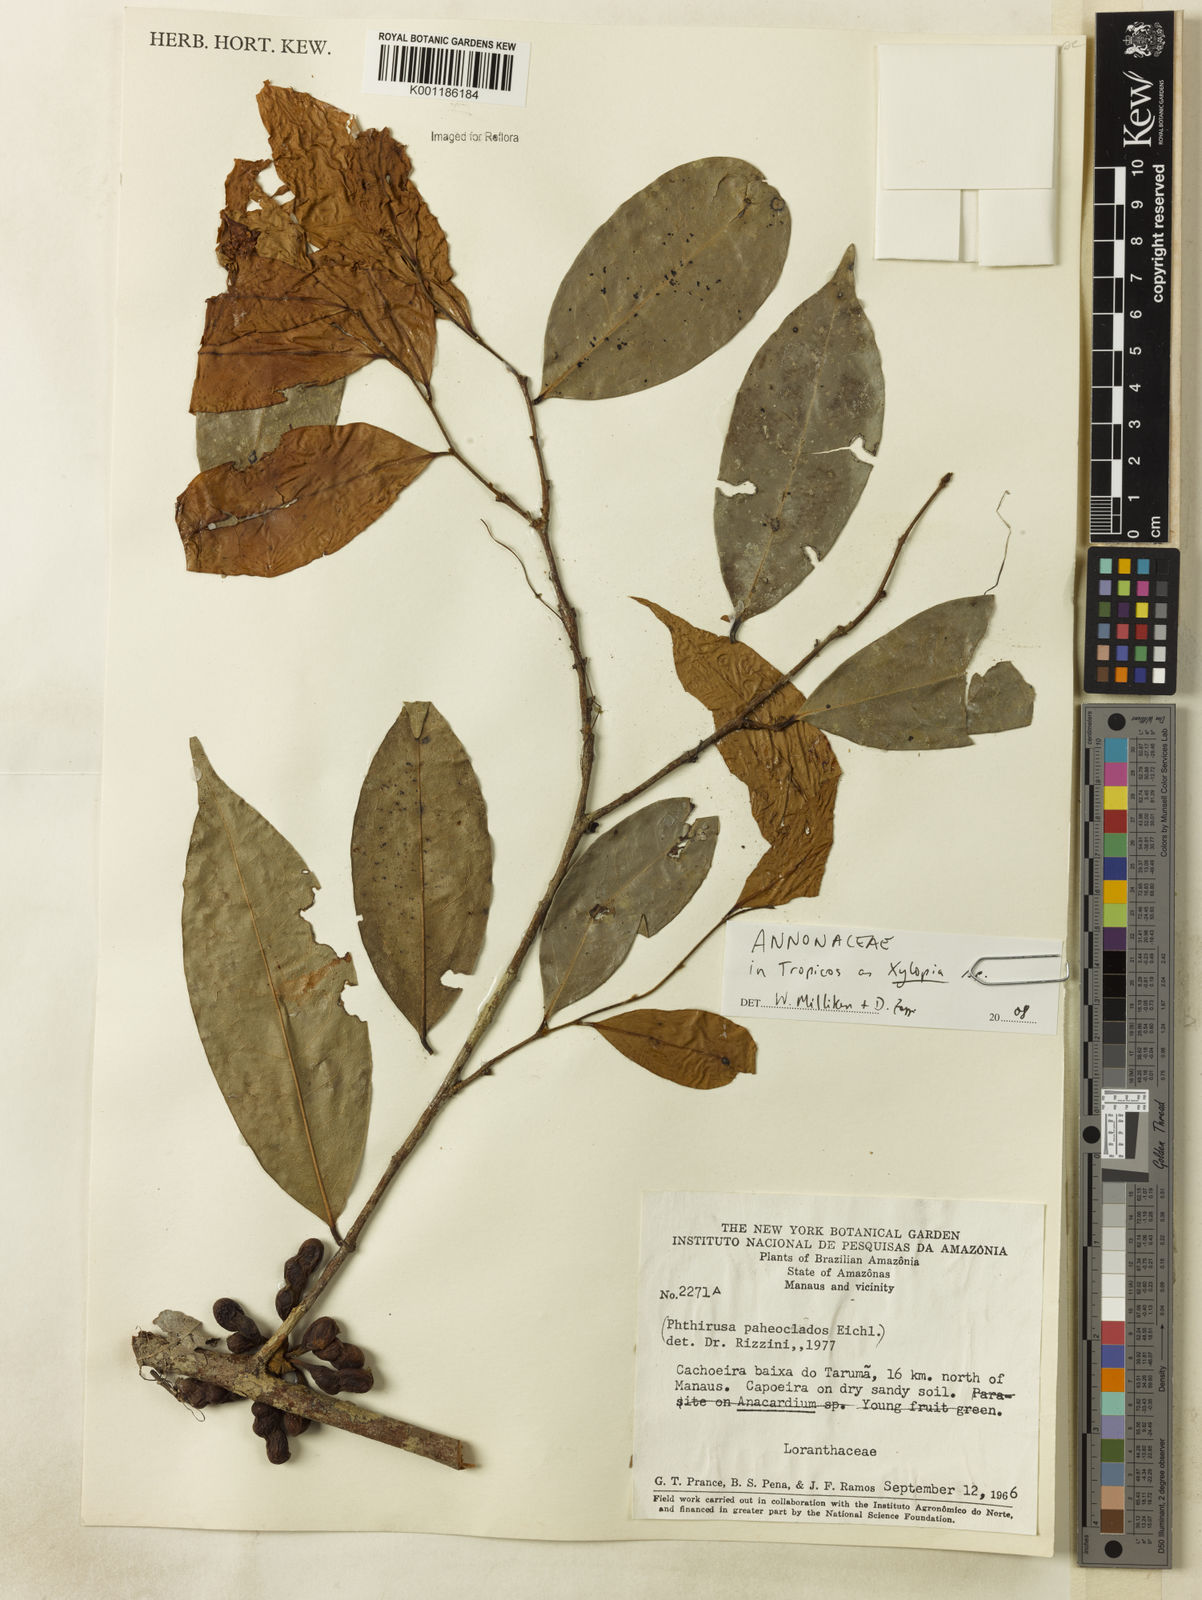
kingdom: Plantae
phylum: Tracheophyta
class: Magnoliopsida
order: Magnoliales
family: Annonaceae
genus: Xylopia
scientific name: Xylopia
